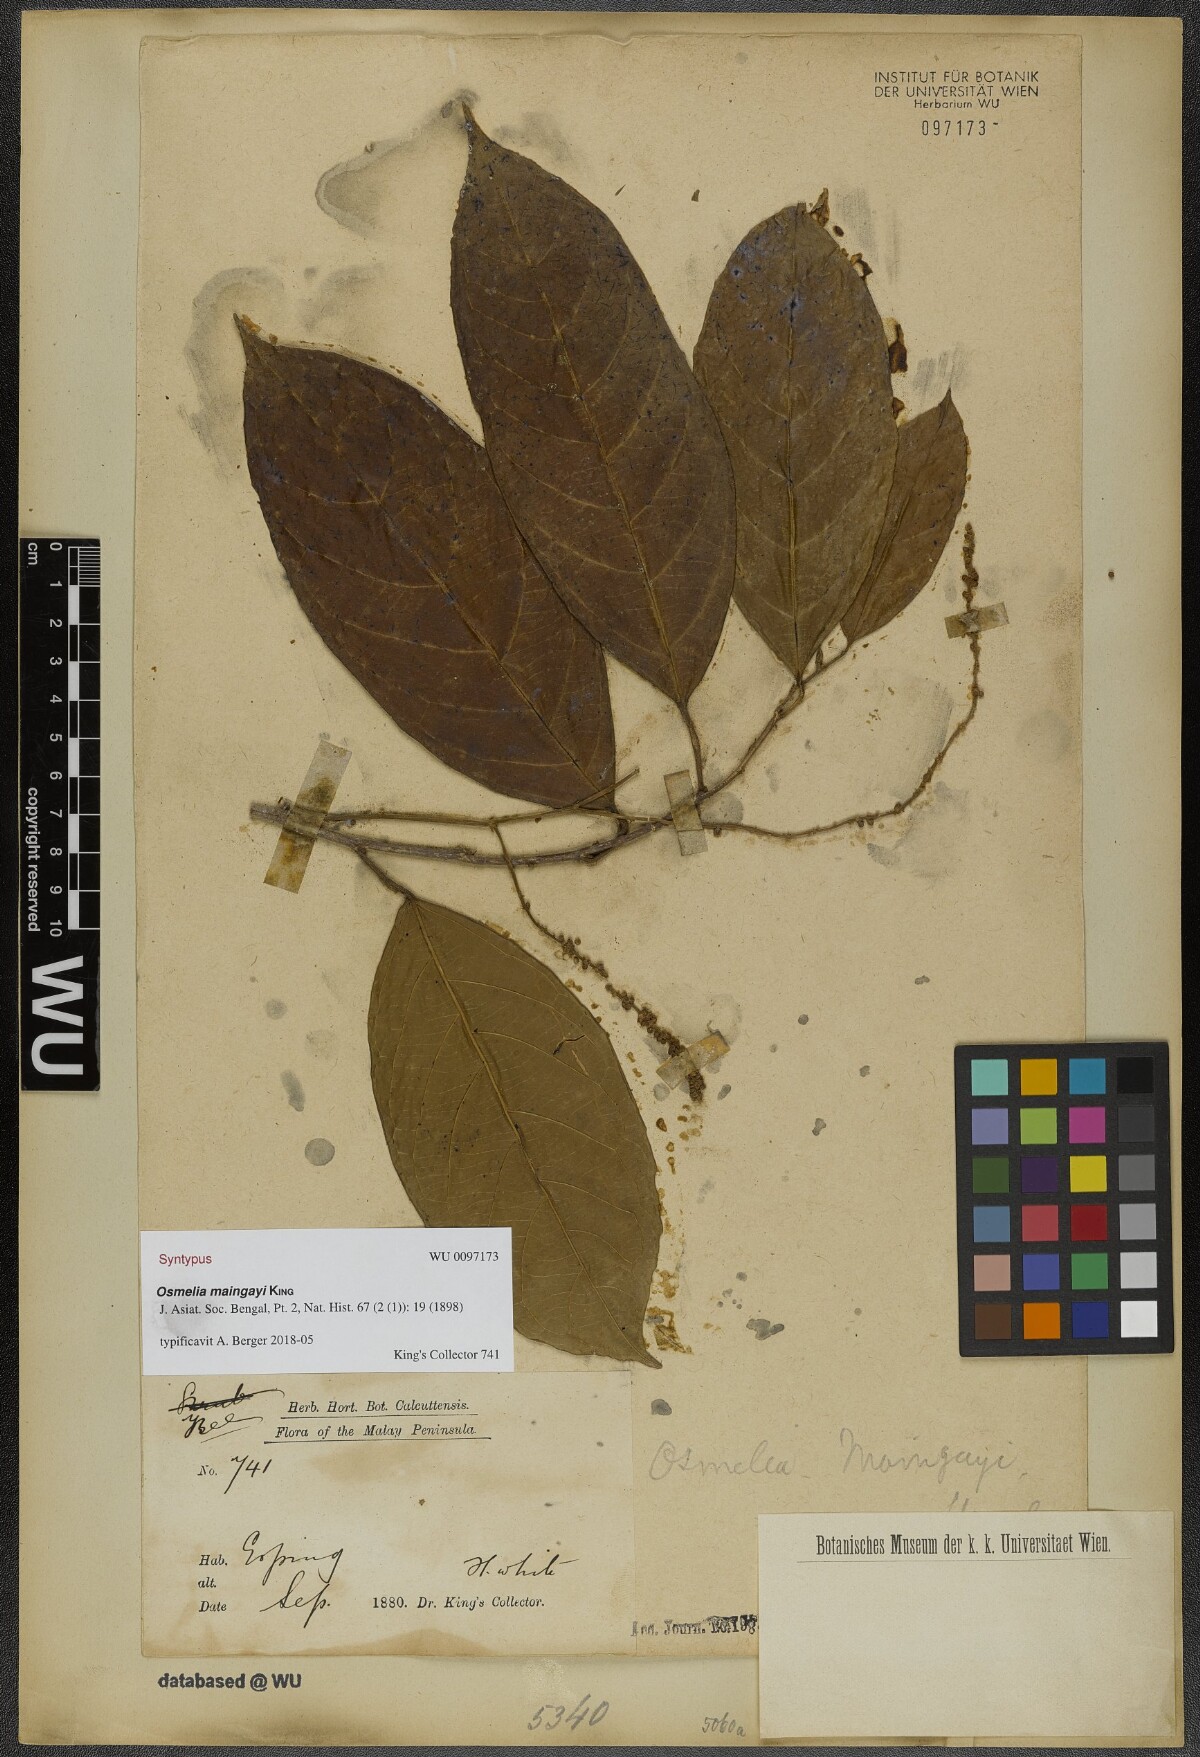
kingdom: Plantae
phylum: Tracheophyta
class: Magnoliopsida
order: Malpighiales
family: Salicaceae
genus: Osmelia
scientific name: Osmelia maingayi
